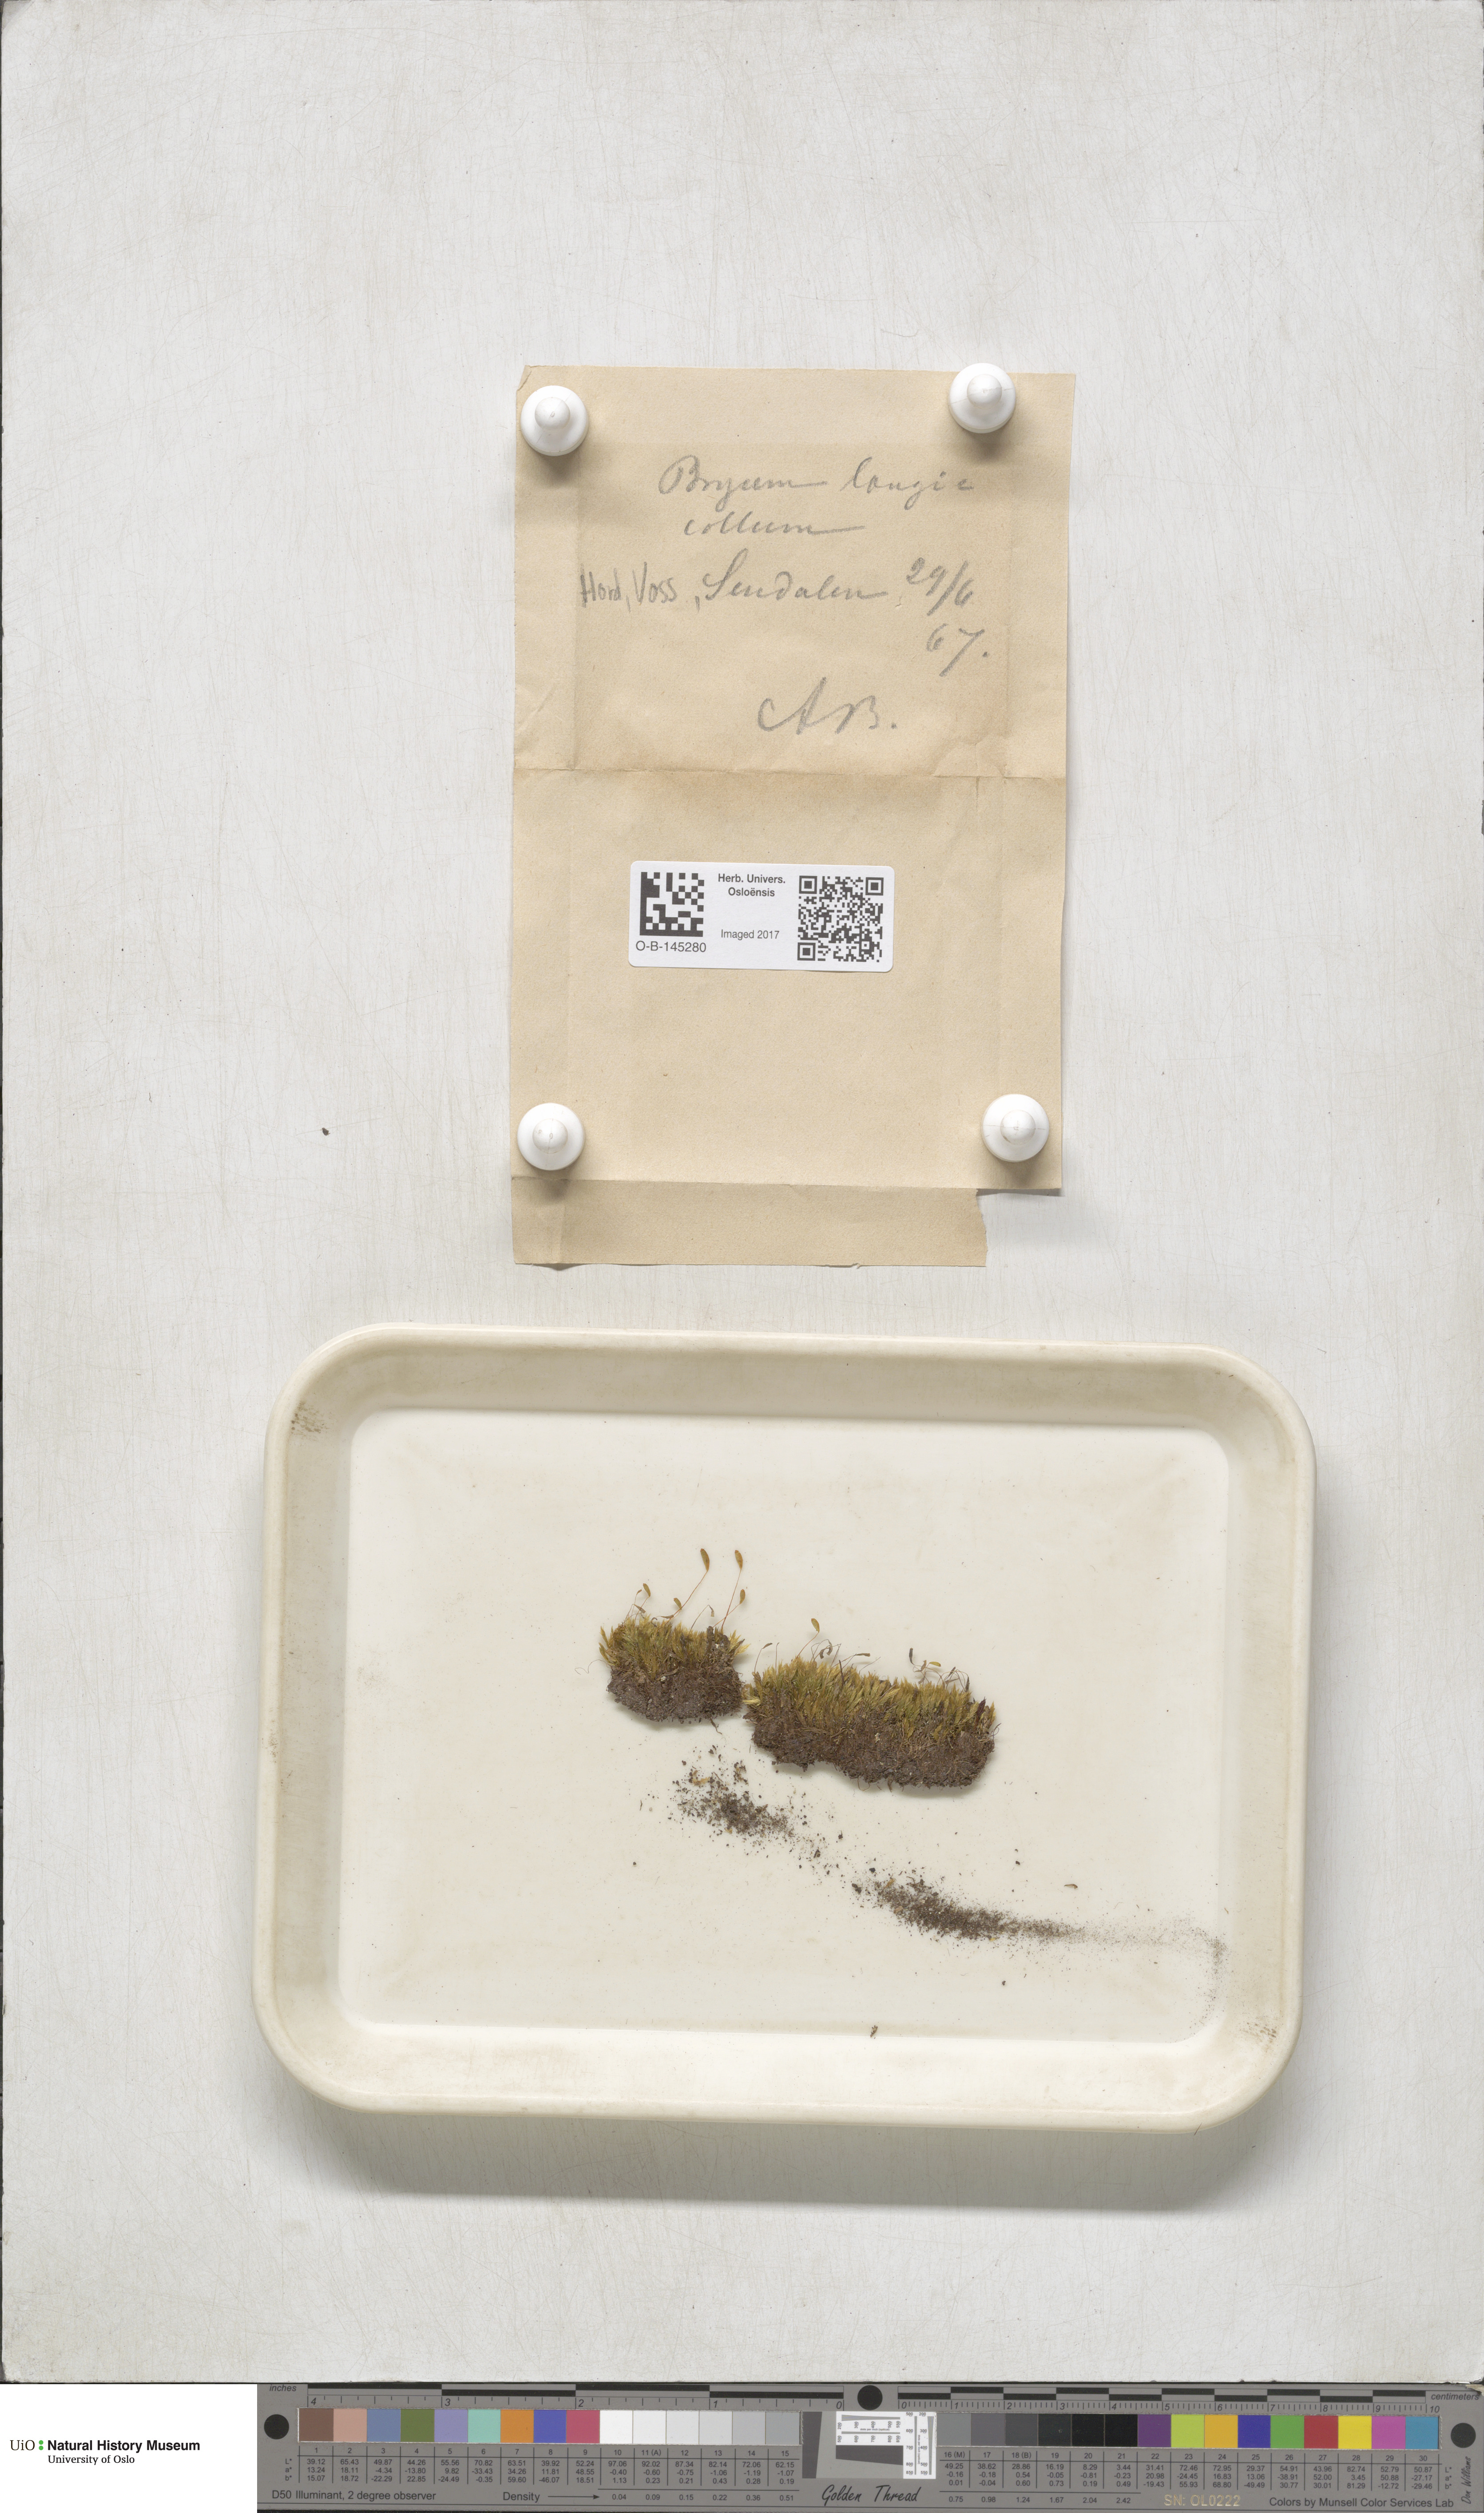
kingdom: Plantae
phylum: Bryophyta
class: Bryopsida
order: Bryales
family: Mniaceae
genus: Pohlia
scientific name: Pohlia longicolla
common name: Long-necked nodding moss
